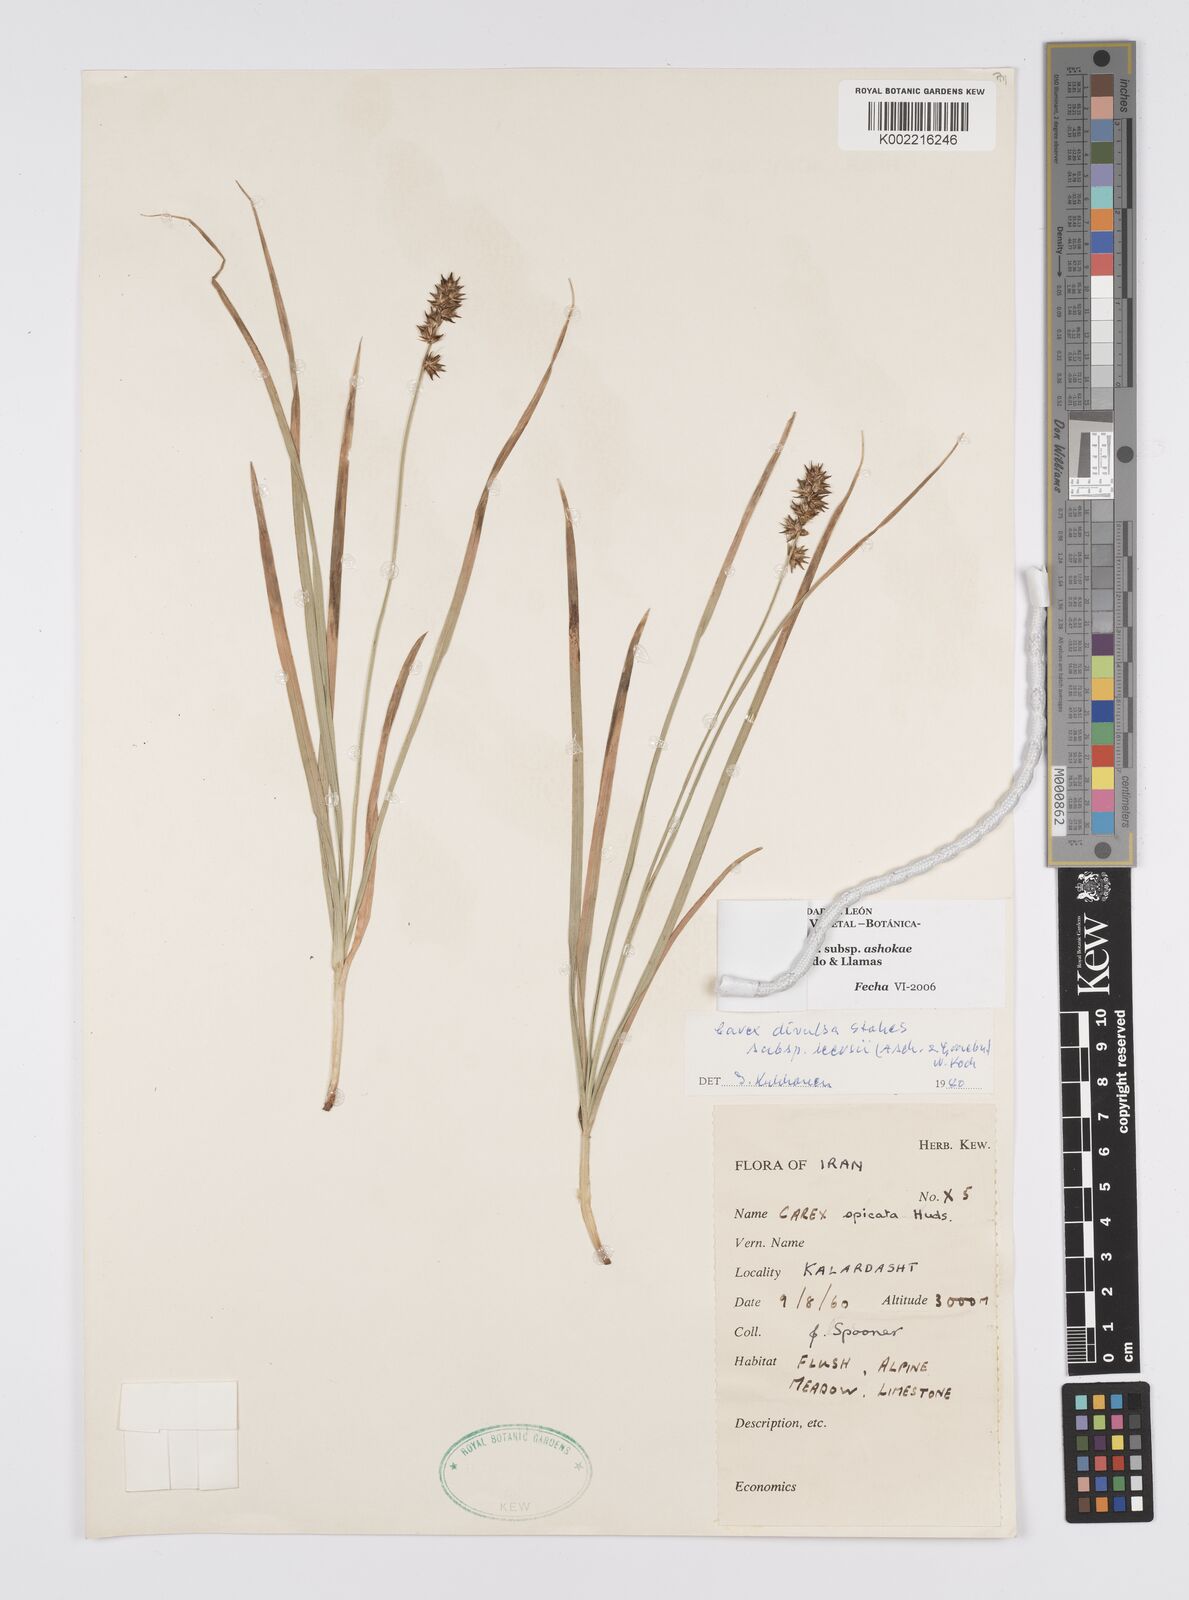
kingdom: Plantae
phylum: Tracheophyta
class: Liliopsida
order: Poales
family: Cyperaceae
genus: Carex
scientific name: Carex muricata
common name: Rough sedge
